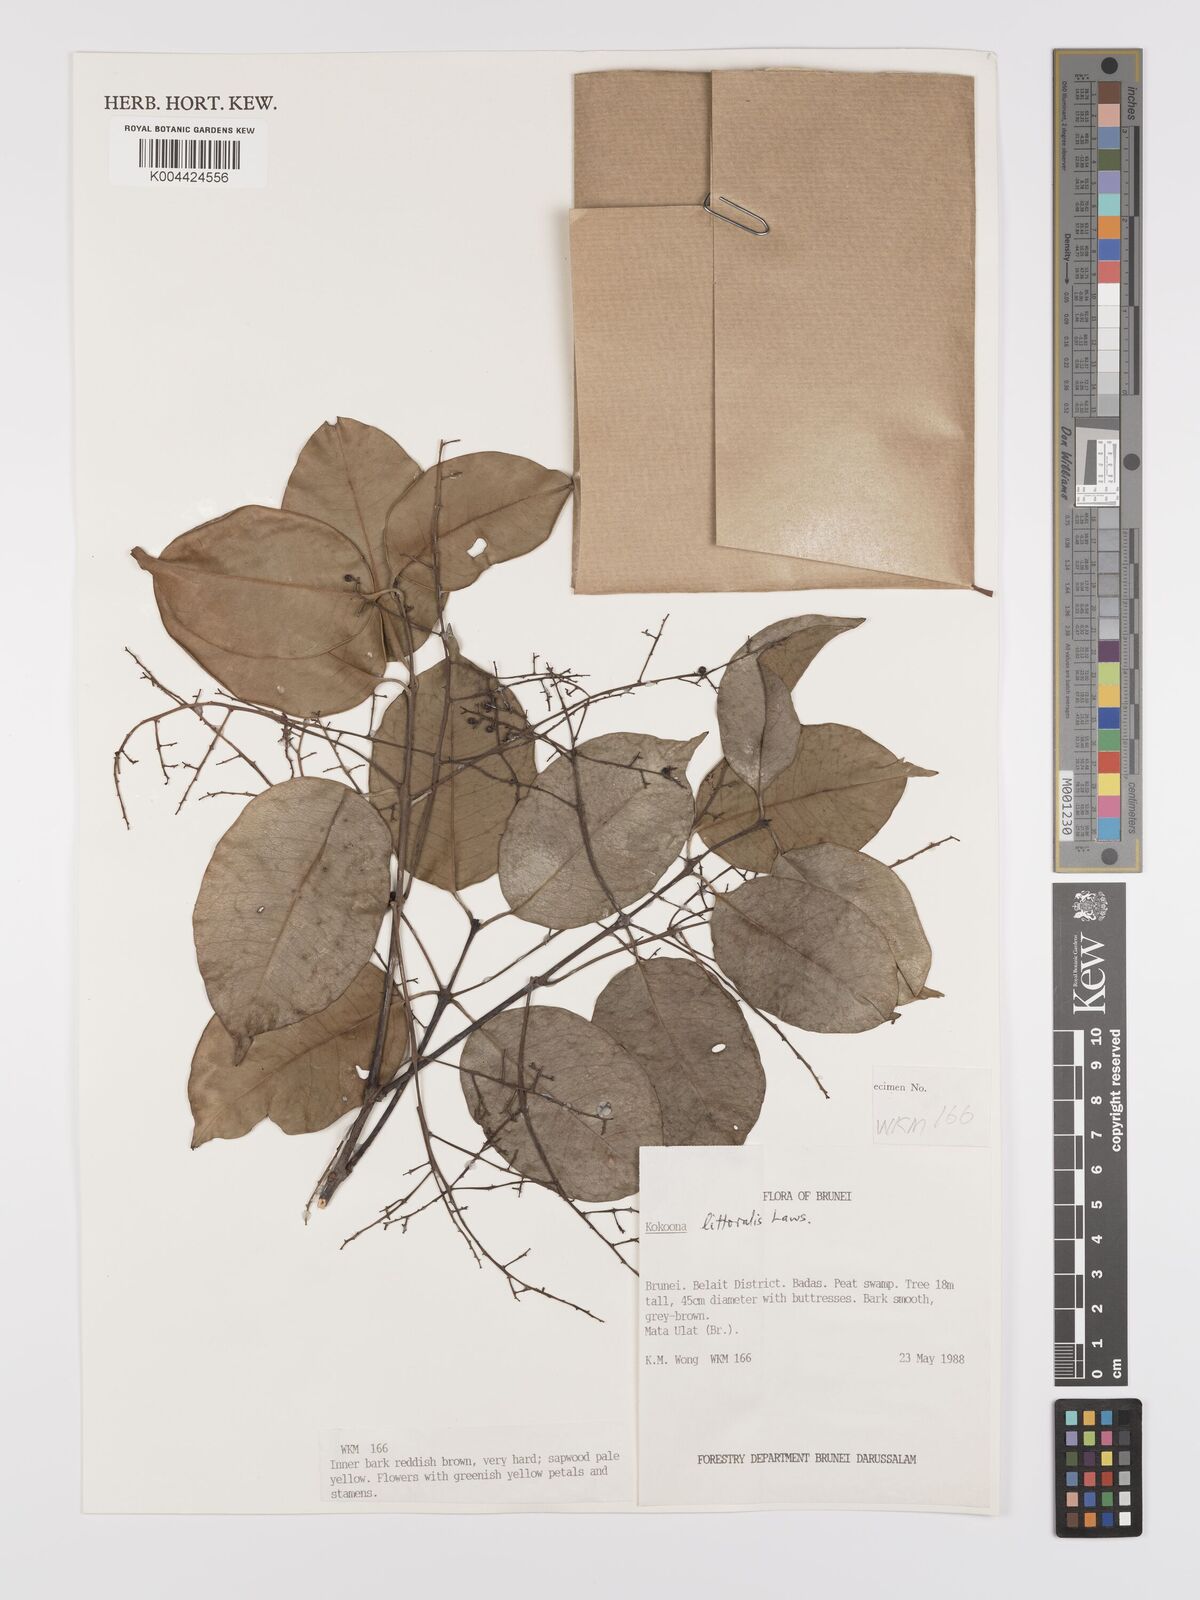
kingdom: Plantae
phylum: Tracheophyta
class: Magnoliopsida
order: Celastrales
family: Celastraceae
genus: Kokoona
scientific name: Kokoona littoralis
